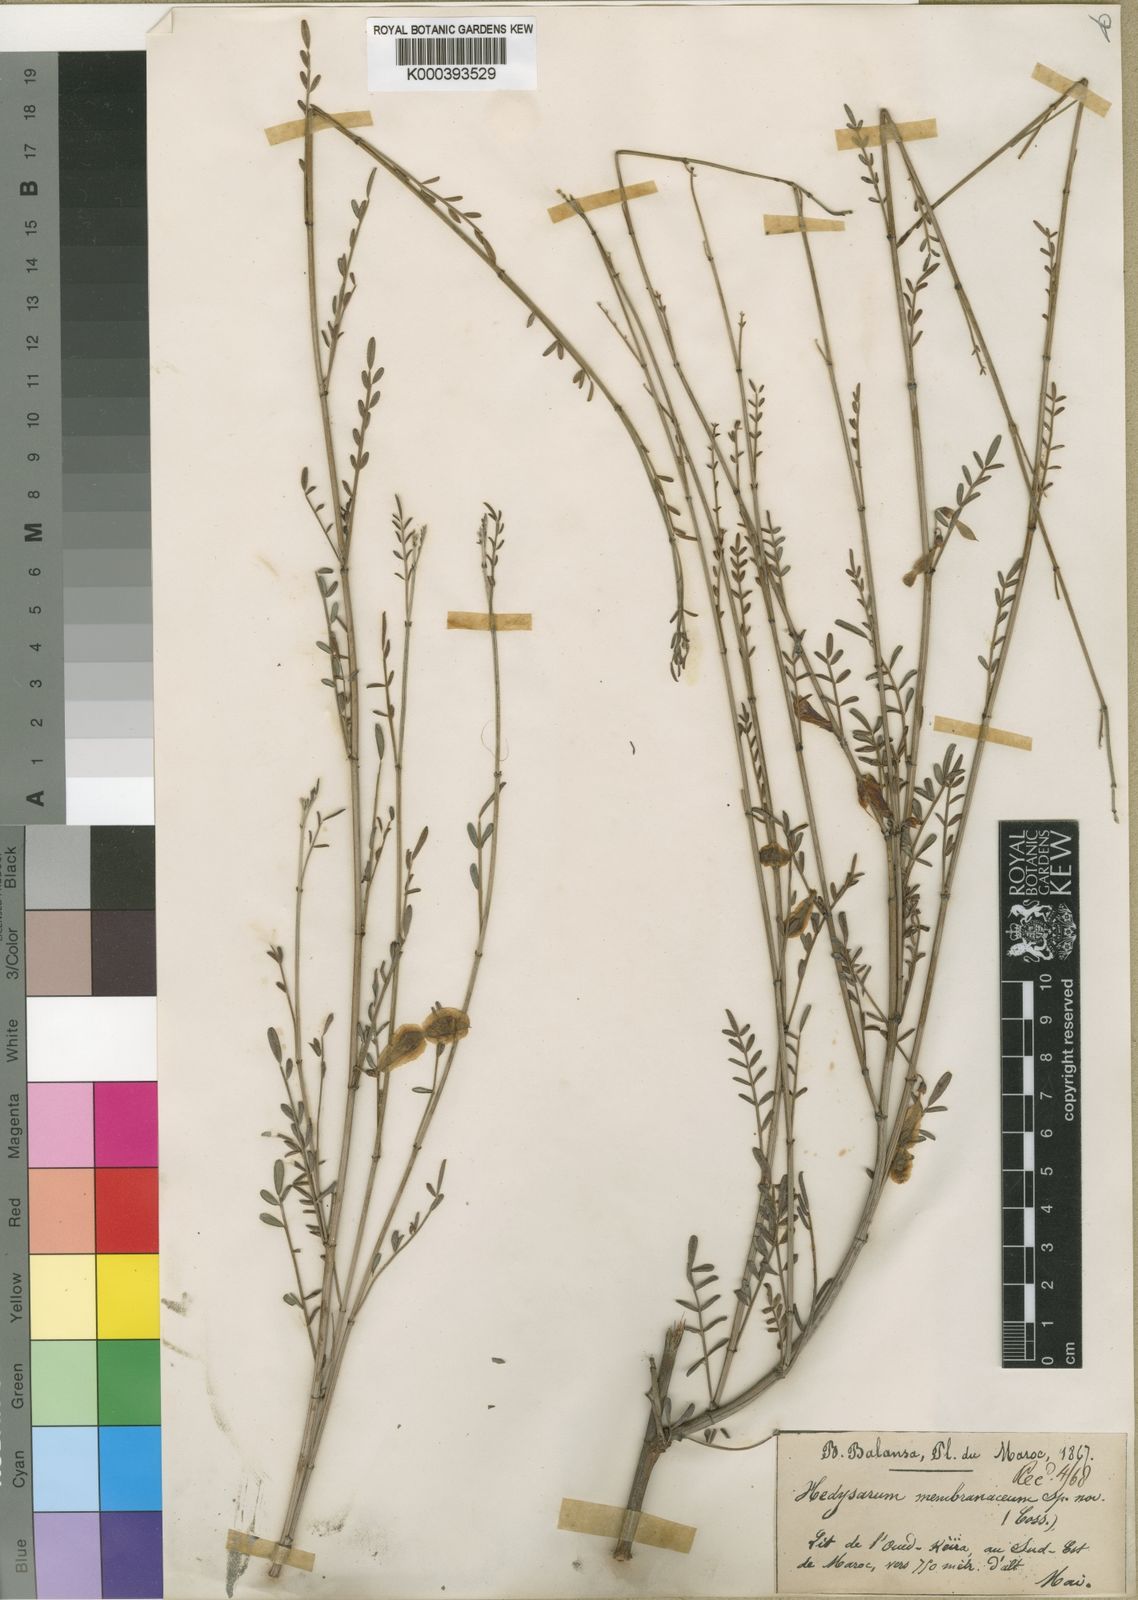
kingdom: Plantae
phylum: Tracheophyta
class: Magnoliopsida
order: Fabales
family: Fabaceae
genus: Greuteria
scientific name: Greuteria membranacea
